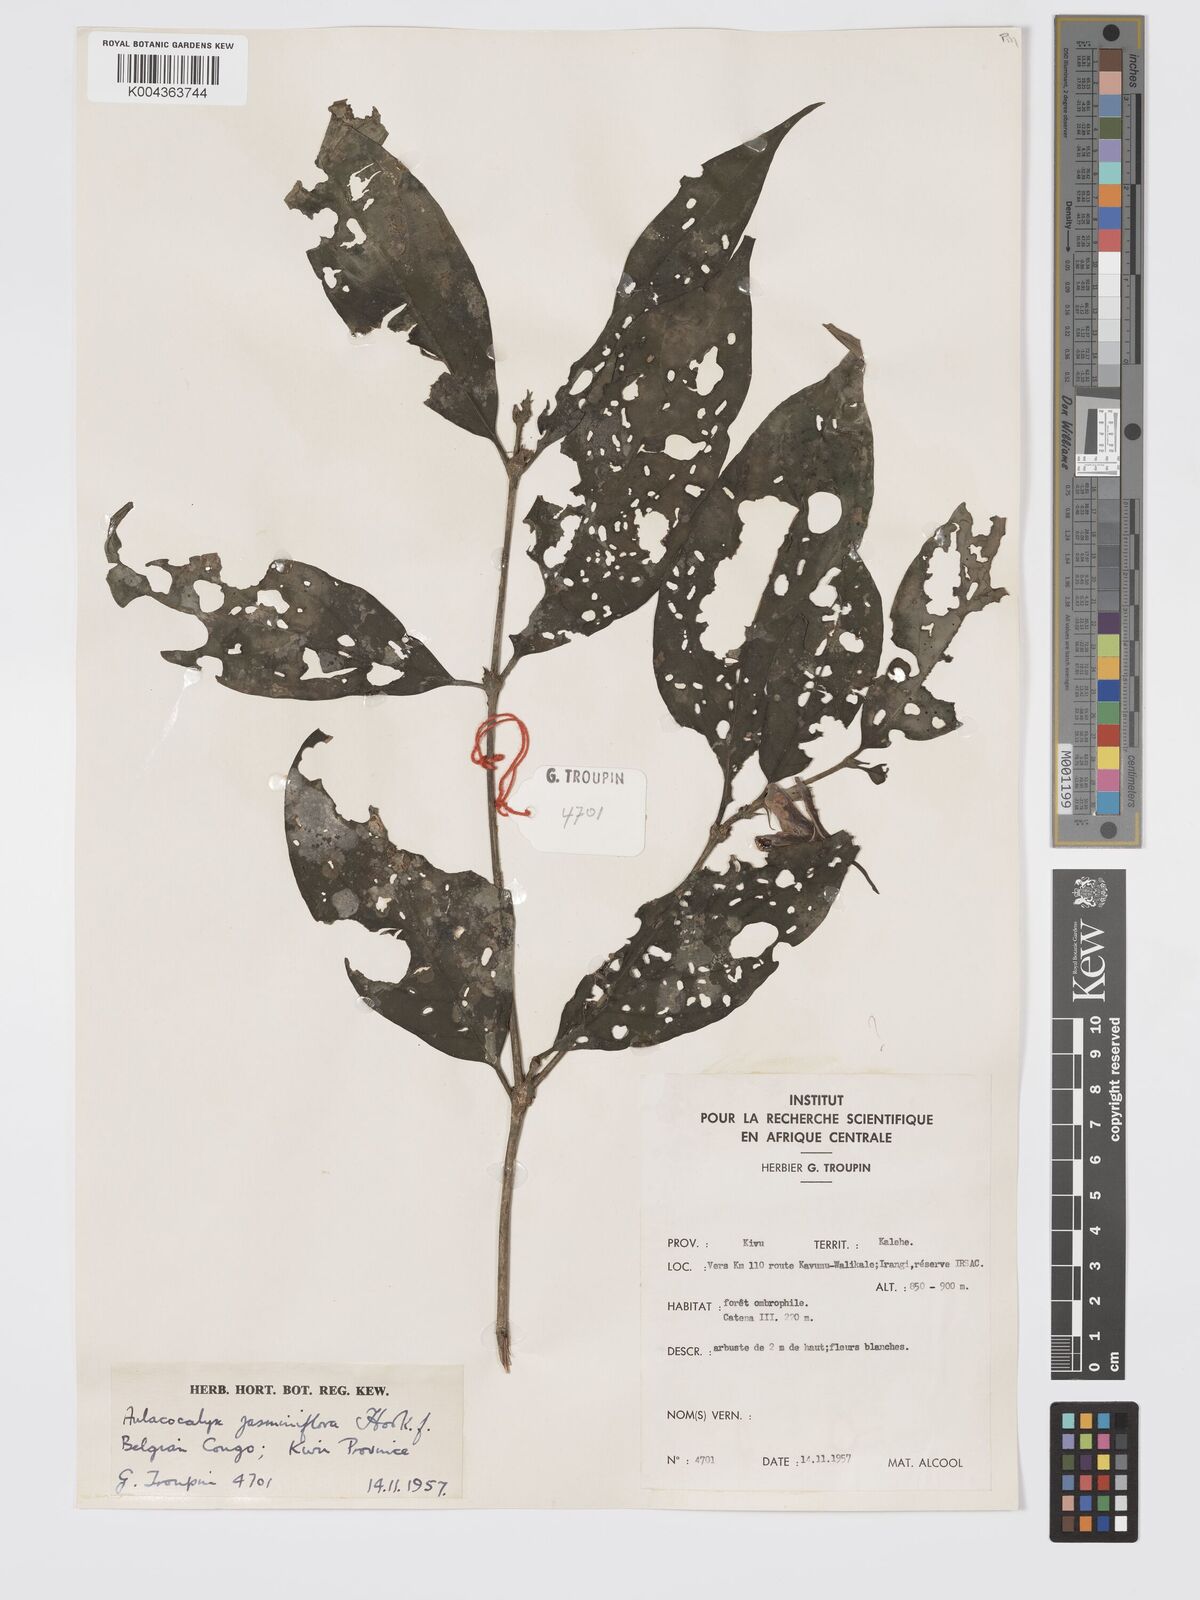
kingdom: Plantae
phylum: Tracheophyta
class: Magnoliopsida
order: Gentianales
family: Rubiaceae
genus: Aulacocalyx
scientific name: Aulacocalyx jasminiflora
